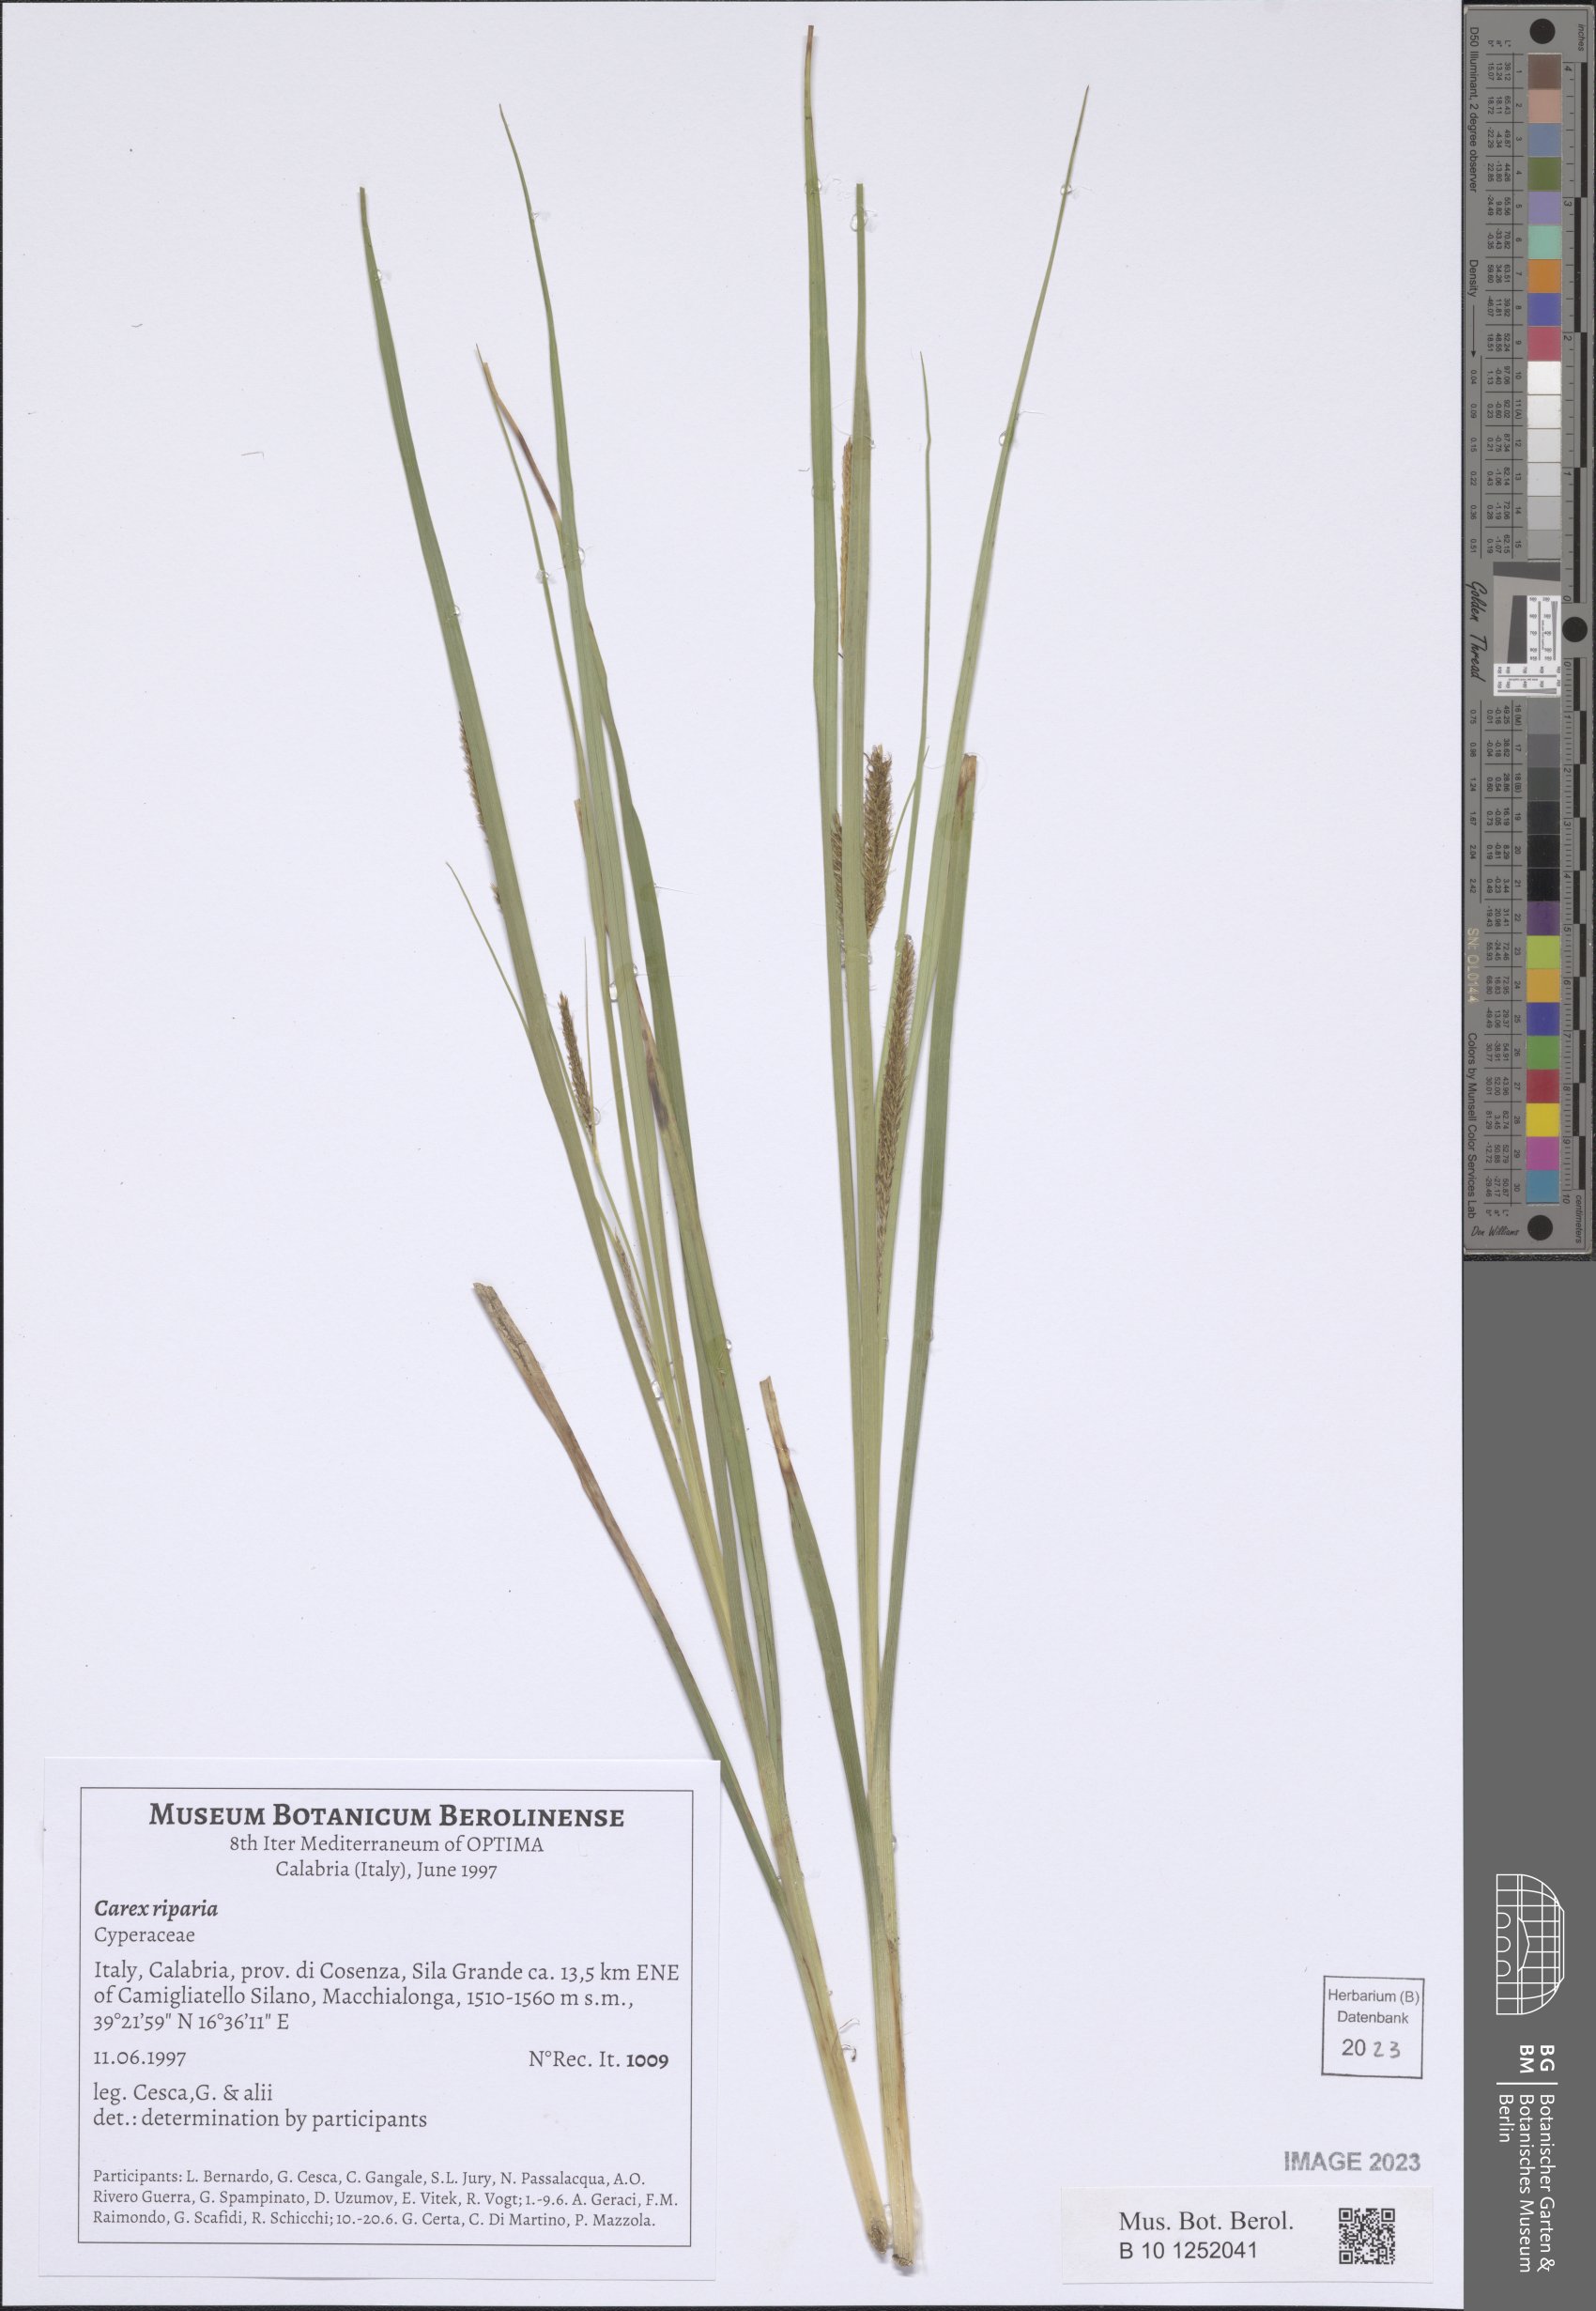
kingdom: Plantae
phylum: Tracheophyta
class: Liliopsida
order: Poales
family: Cyperaceae
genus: Carex
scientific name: Carex riparia
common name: Greater pond-sedge
